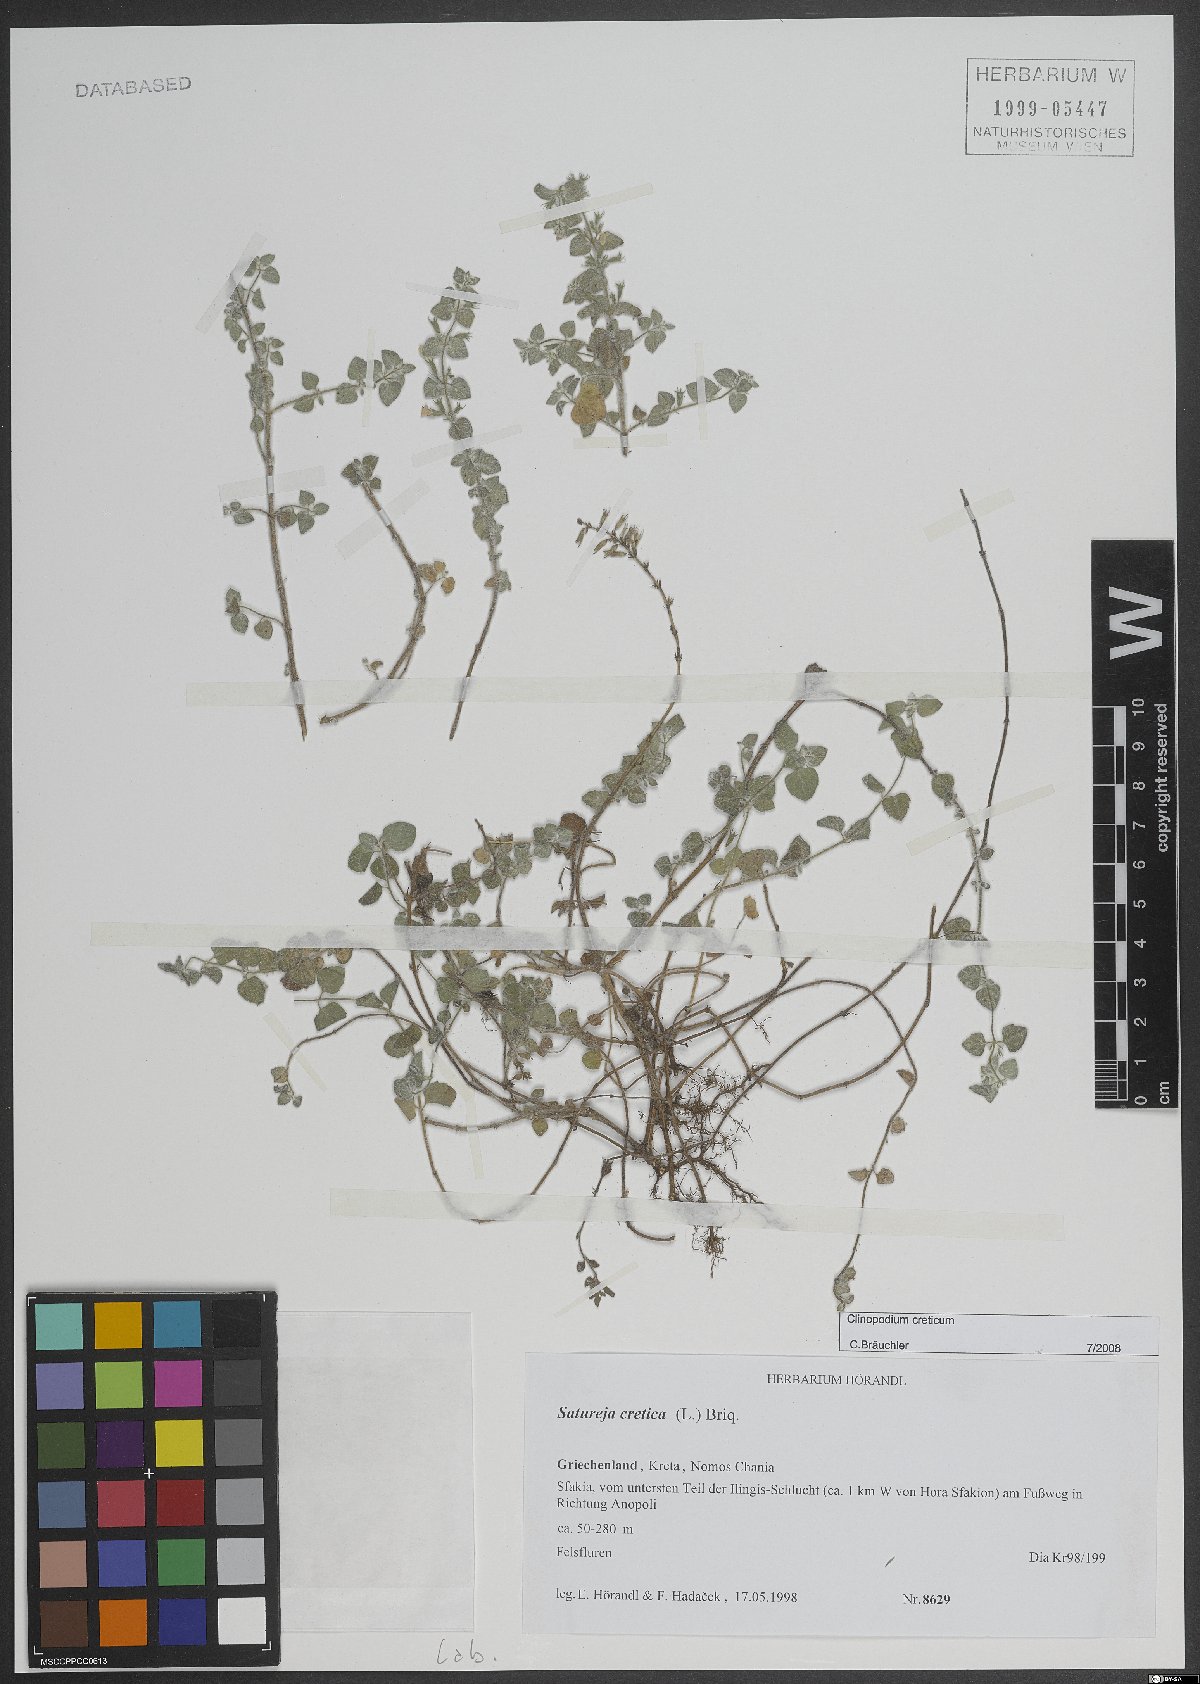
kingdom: Plantae
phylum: Tracheophyta
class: Magnoliopsida
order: Lamiales
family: Lamiaceae
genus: Clinopodium
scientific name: Clinopodium creticum
